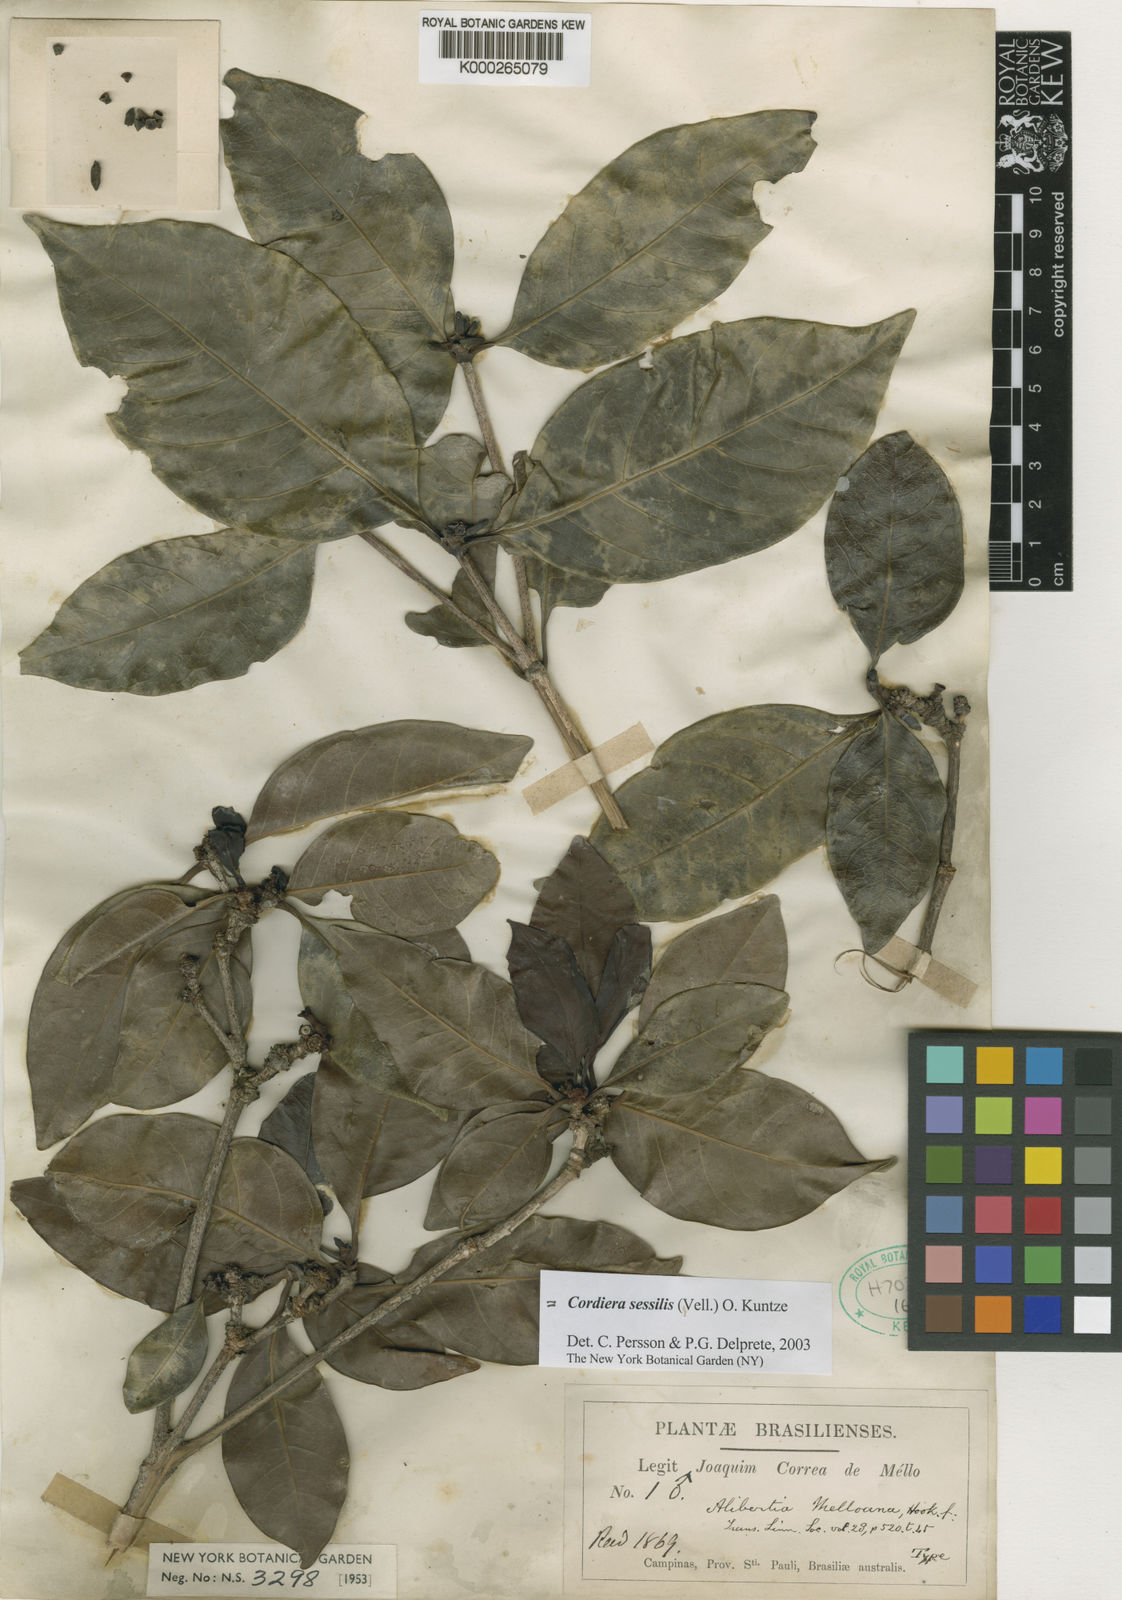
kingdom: Plantae
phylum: Tracheophyta
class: Magnoliopsida
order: Gentianales
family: Rubiaceae
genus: Cordiera
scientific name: Cordiera sessilis
